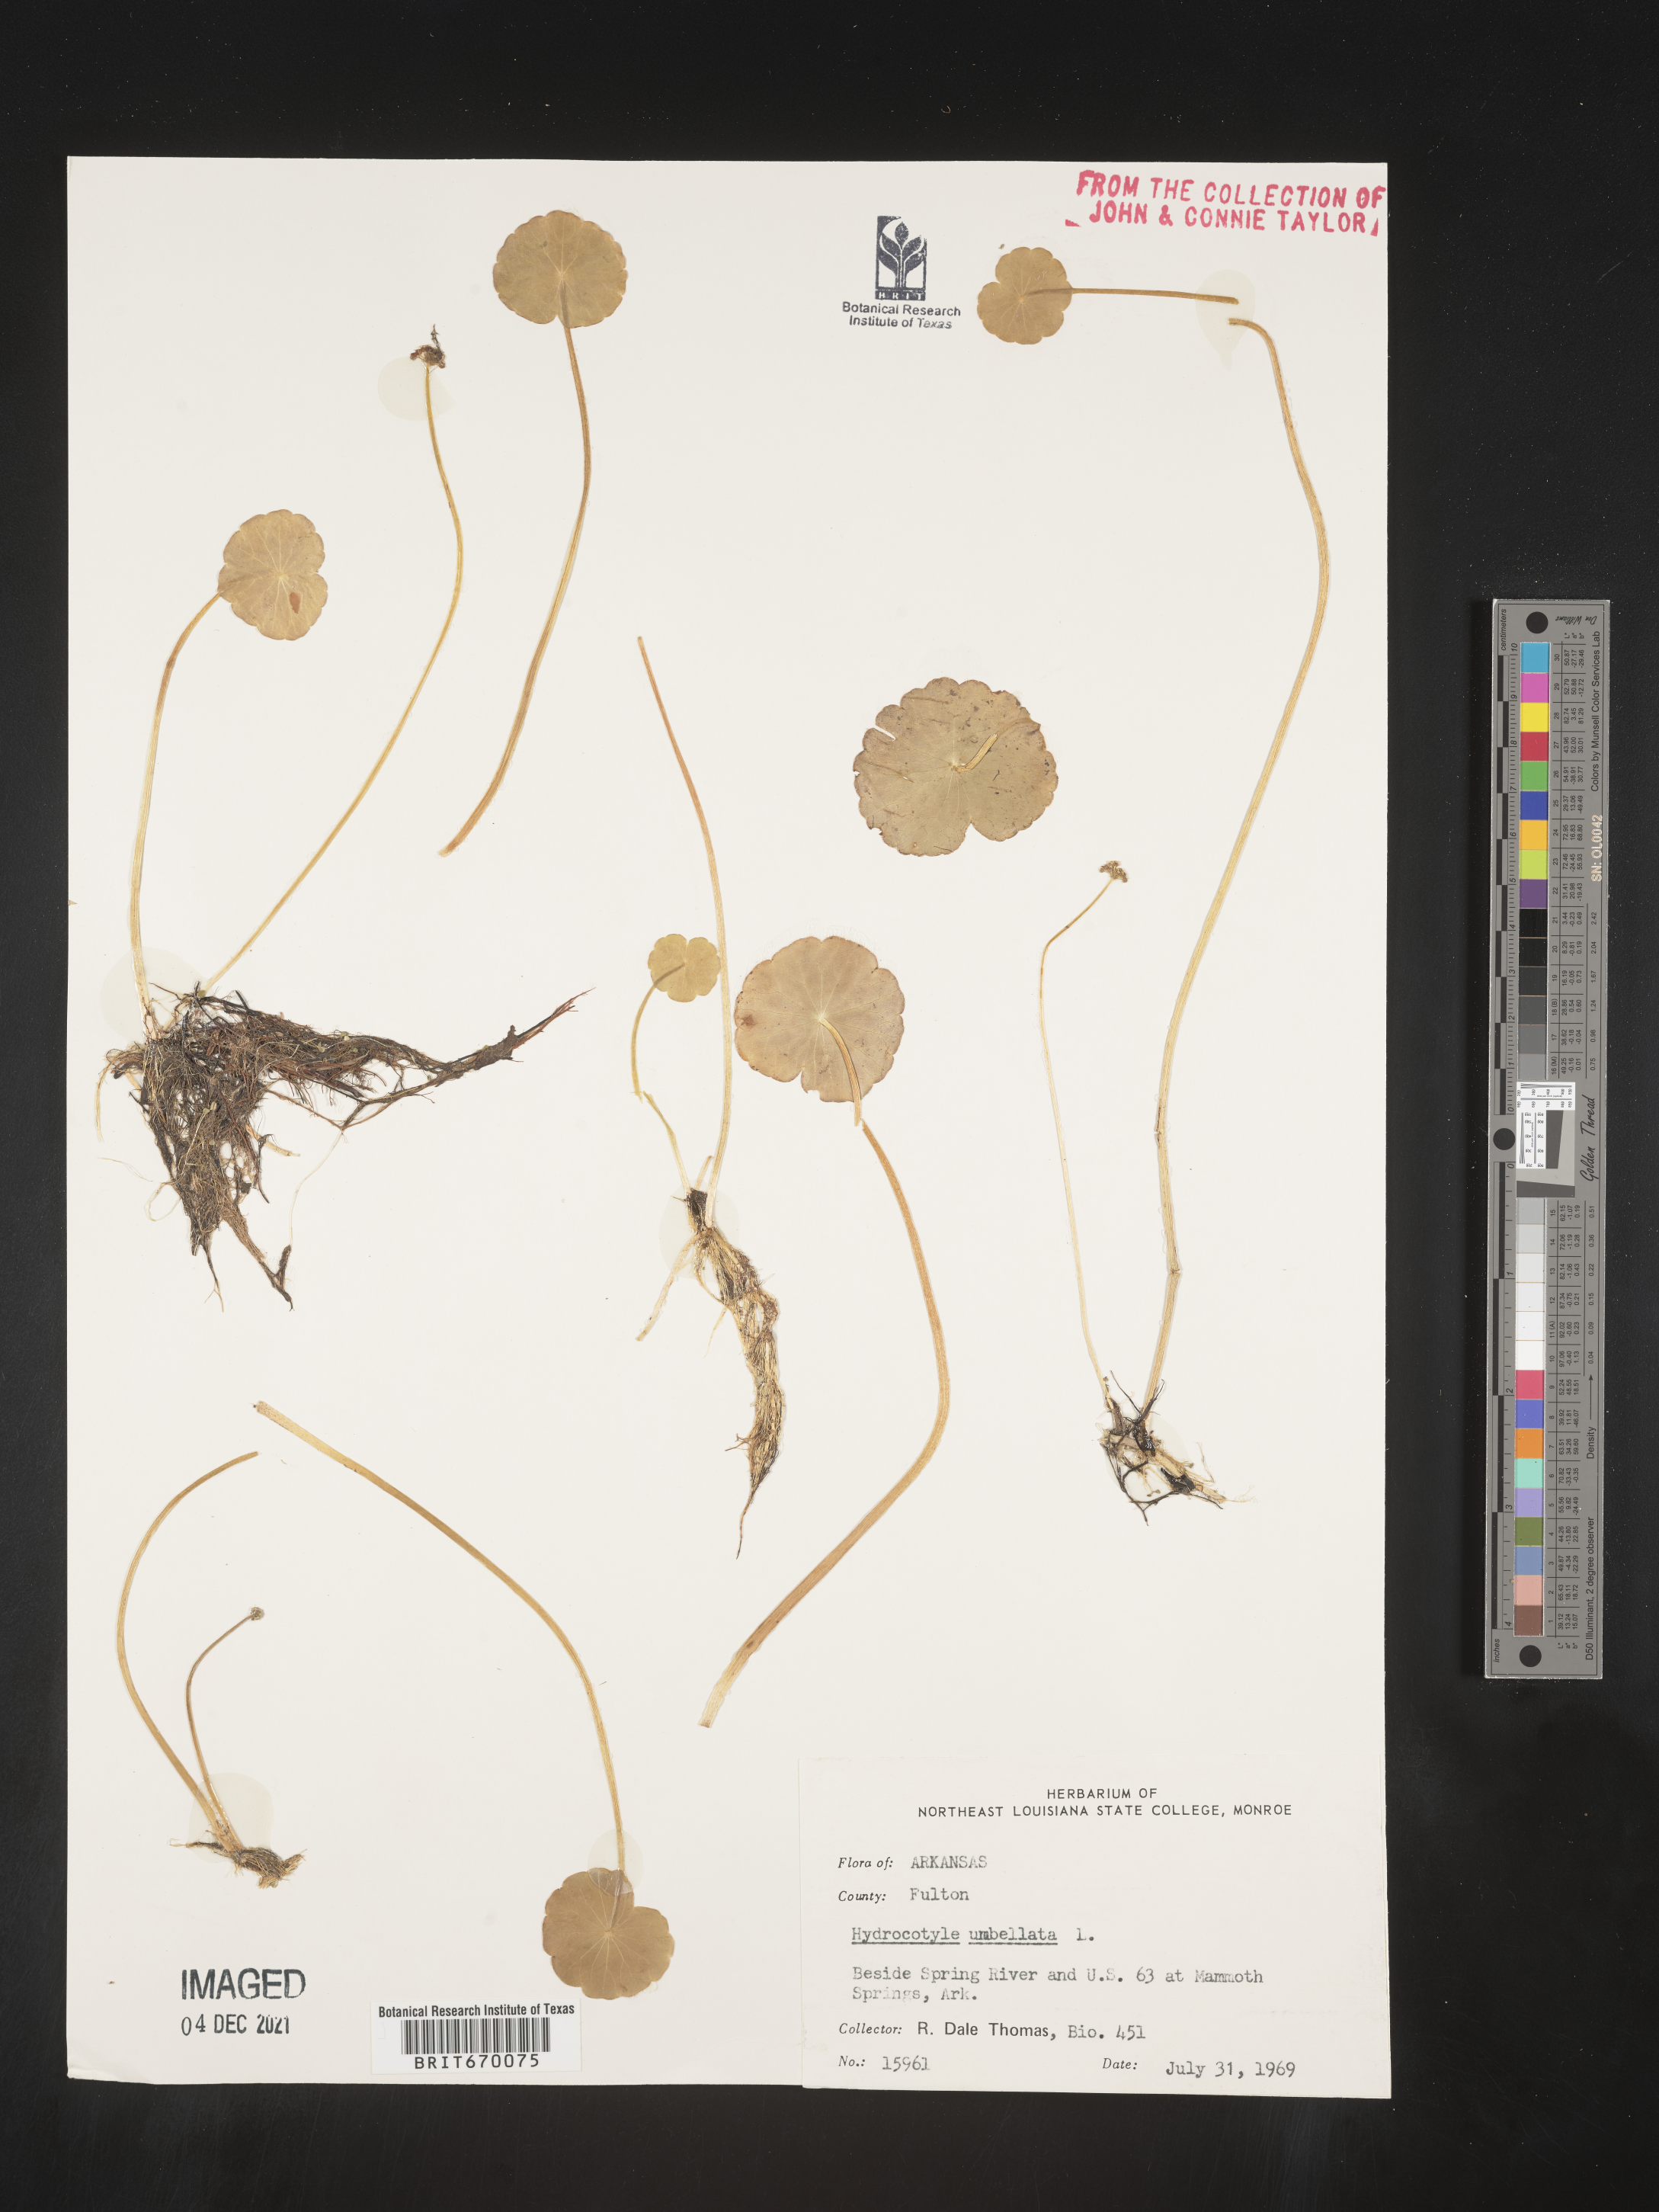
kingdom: Plantae
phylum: Tracheophyta
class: Magnoliopsida
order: Apiales
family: Araliaceae
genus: Hydrocotyle
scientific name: Hydrocotyle umbellata
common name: Water pennywort
